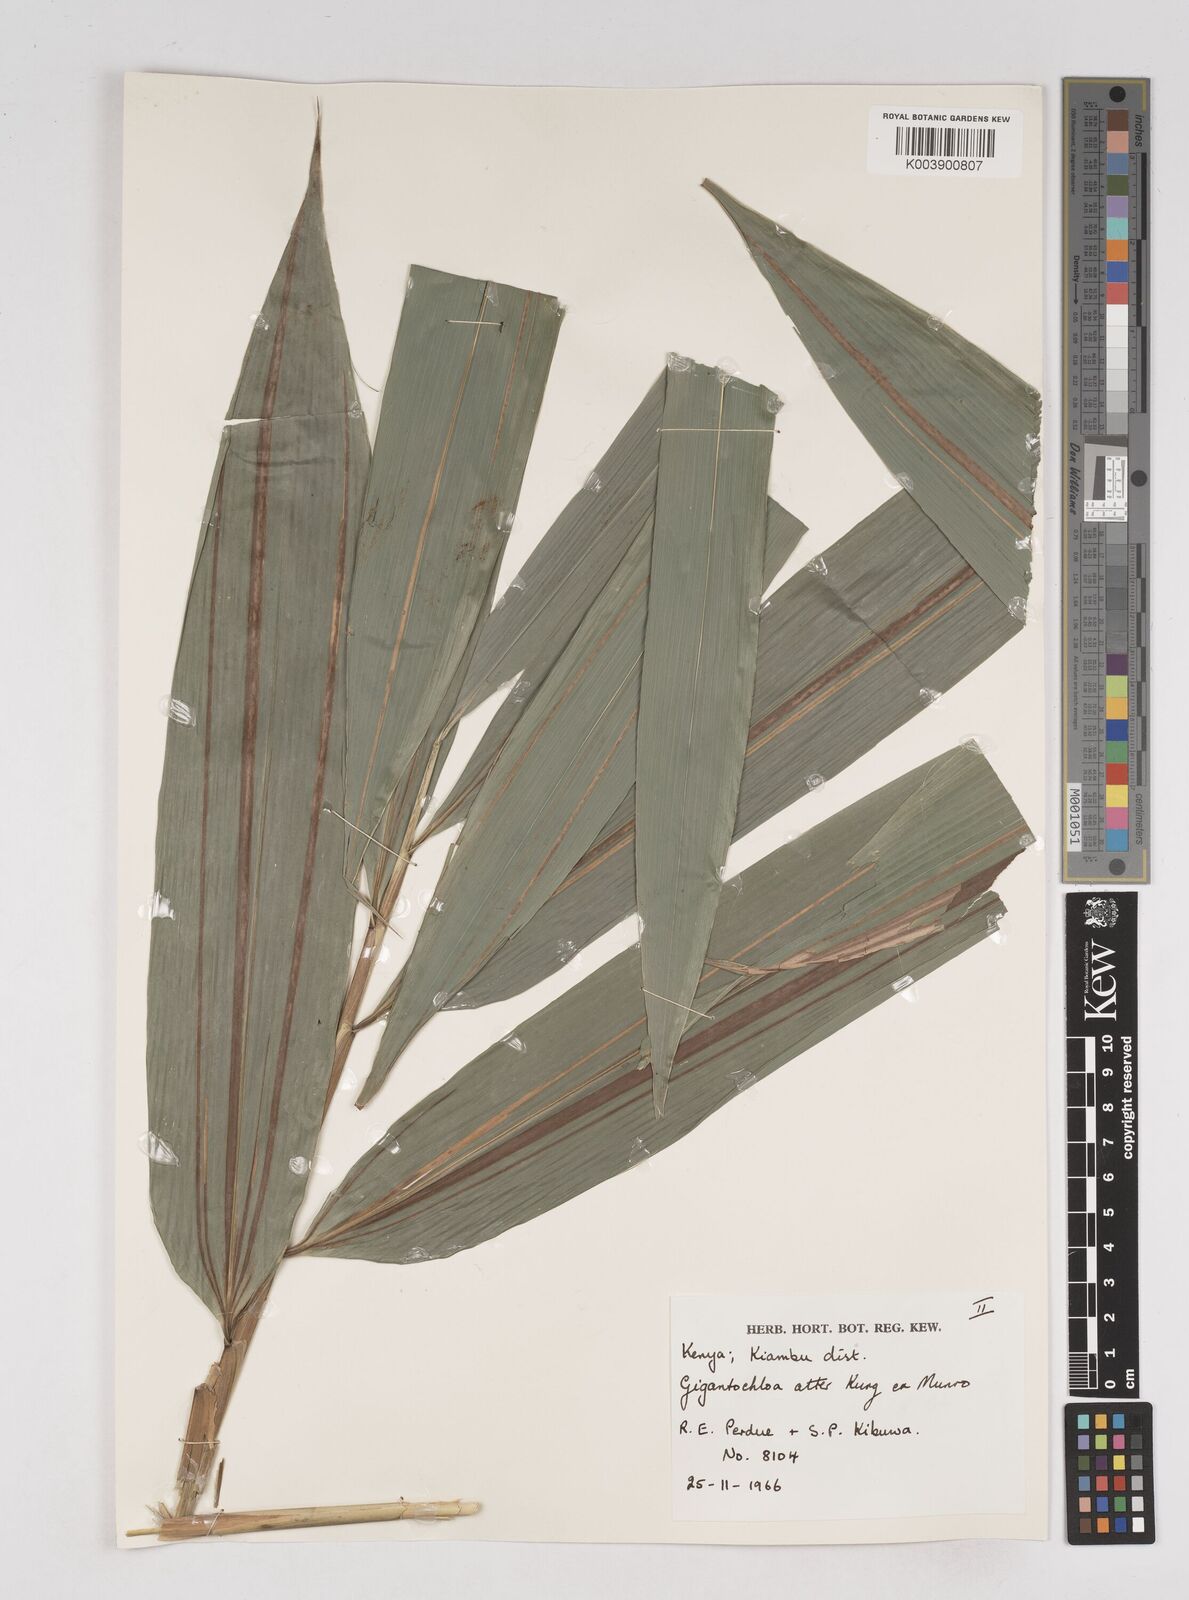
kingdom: Plantae
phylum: Tracheophyta
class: Liliopsida
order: Poales
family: Poaceae
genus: Gigantochloa
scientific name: Gigantochloa atter
